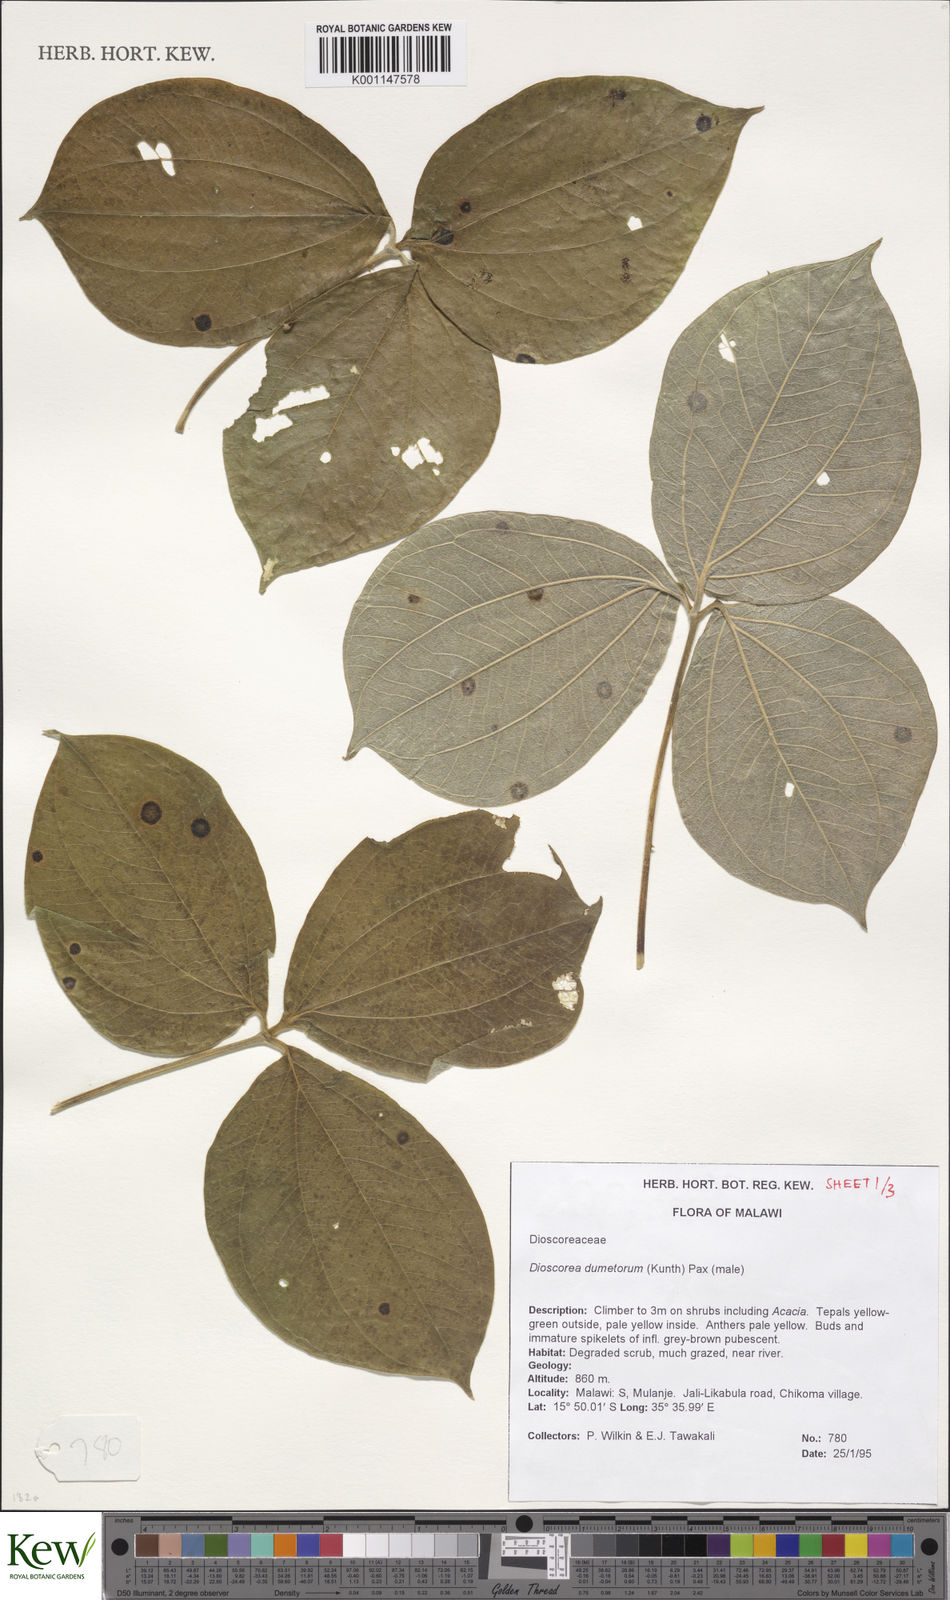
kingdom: Plantae
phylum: Tracheophyta
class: Liliopsida
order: Dioscoreales
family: Dioscoreaceae
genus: Dioscorea
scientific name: Dioscorea dumetorum
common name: African bitter yam
